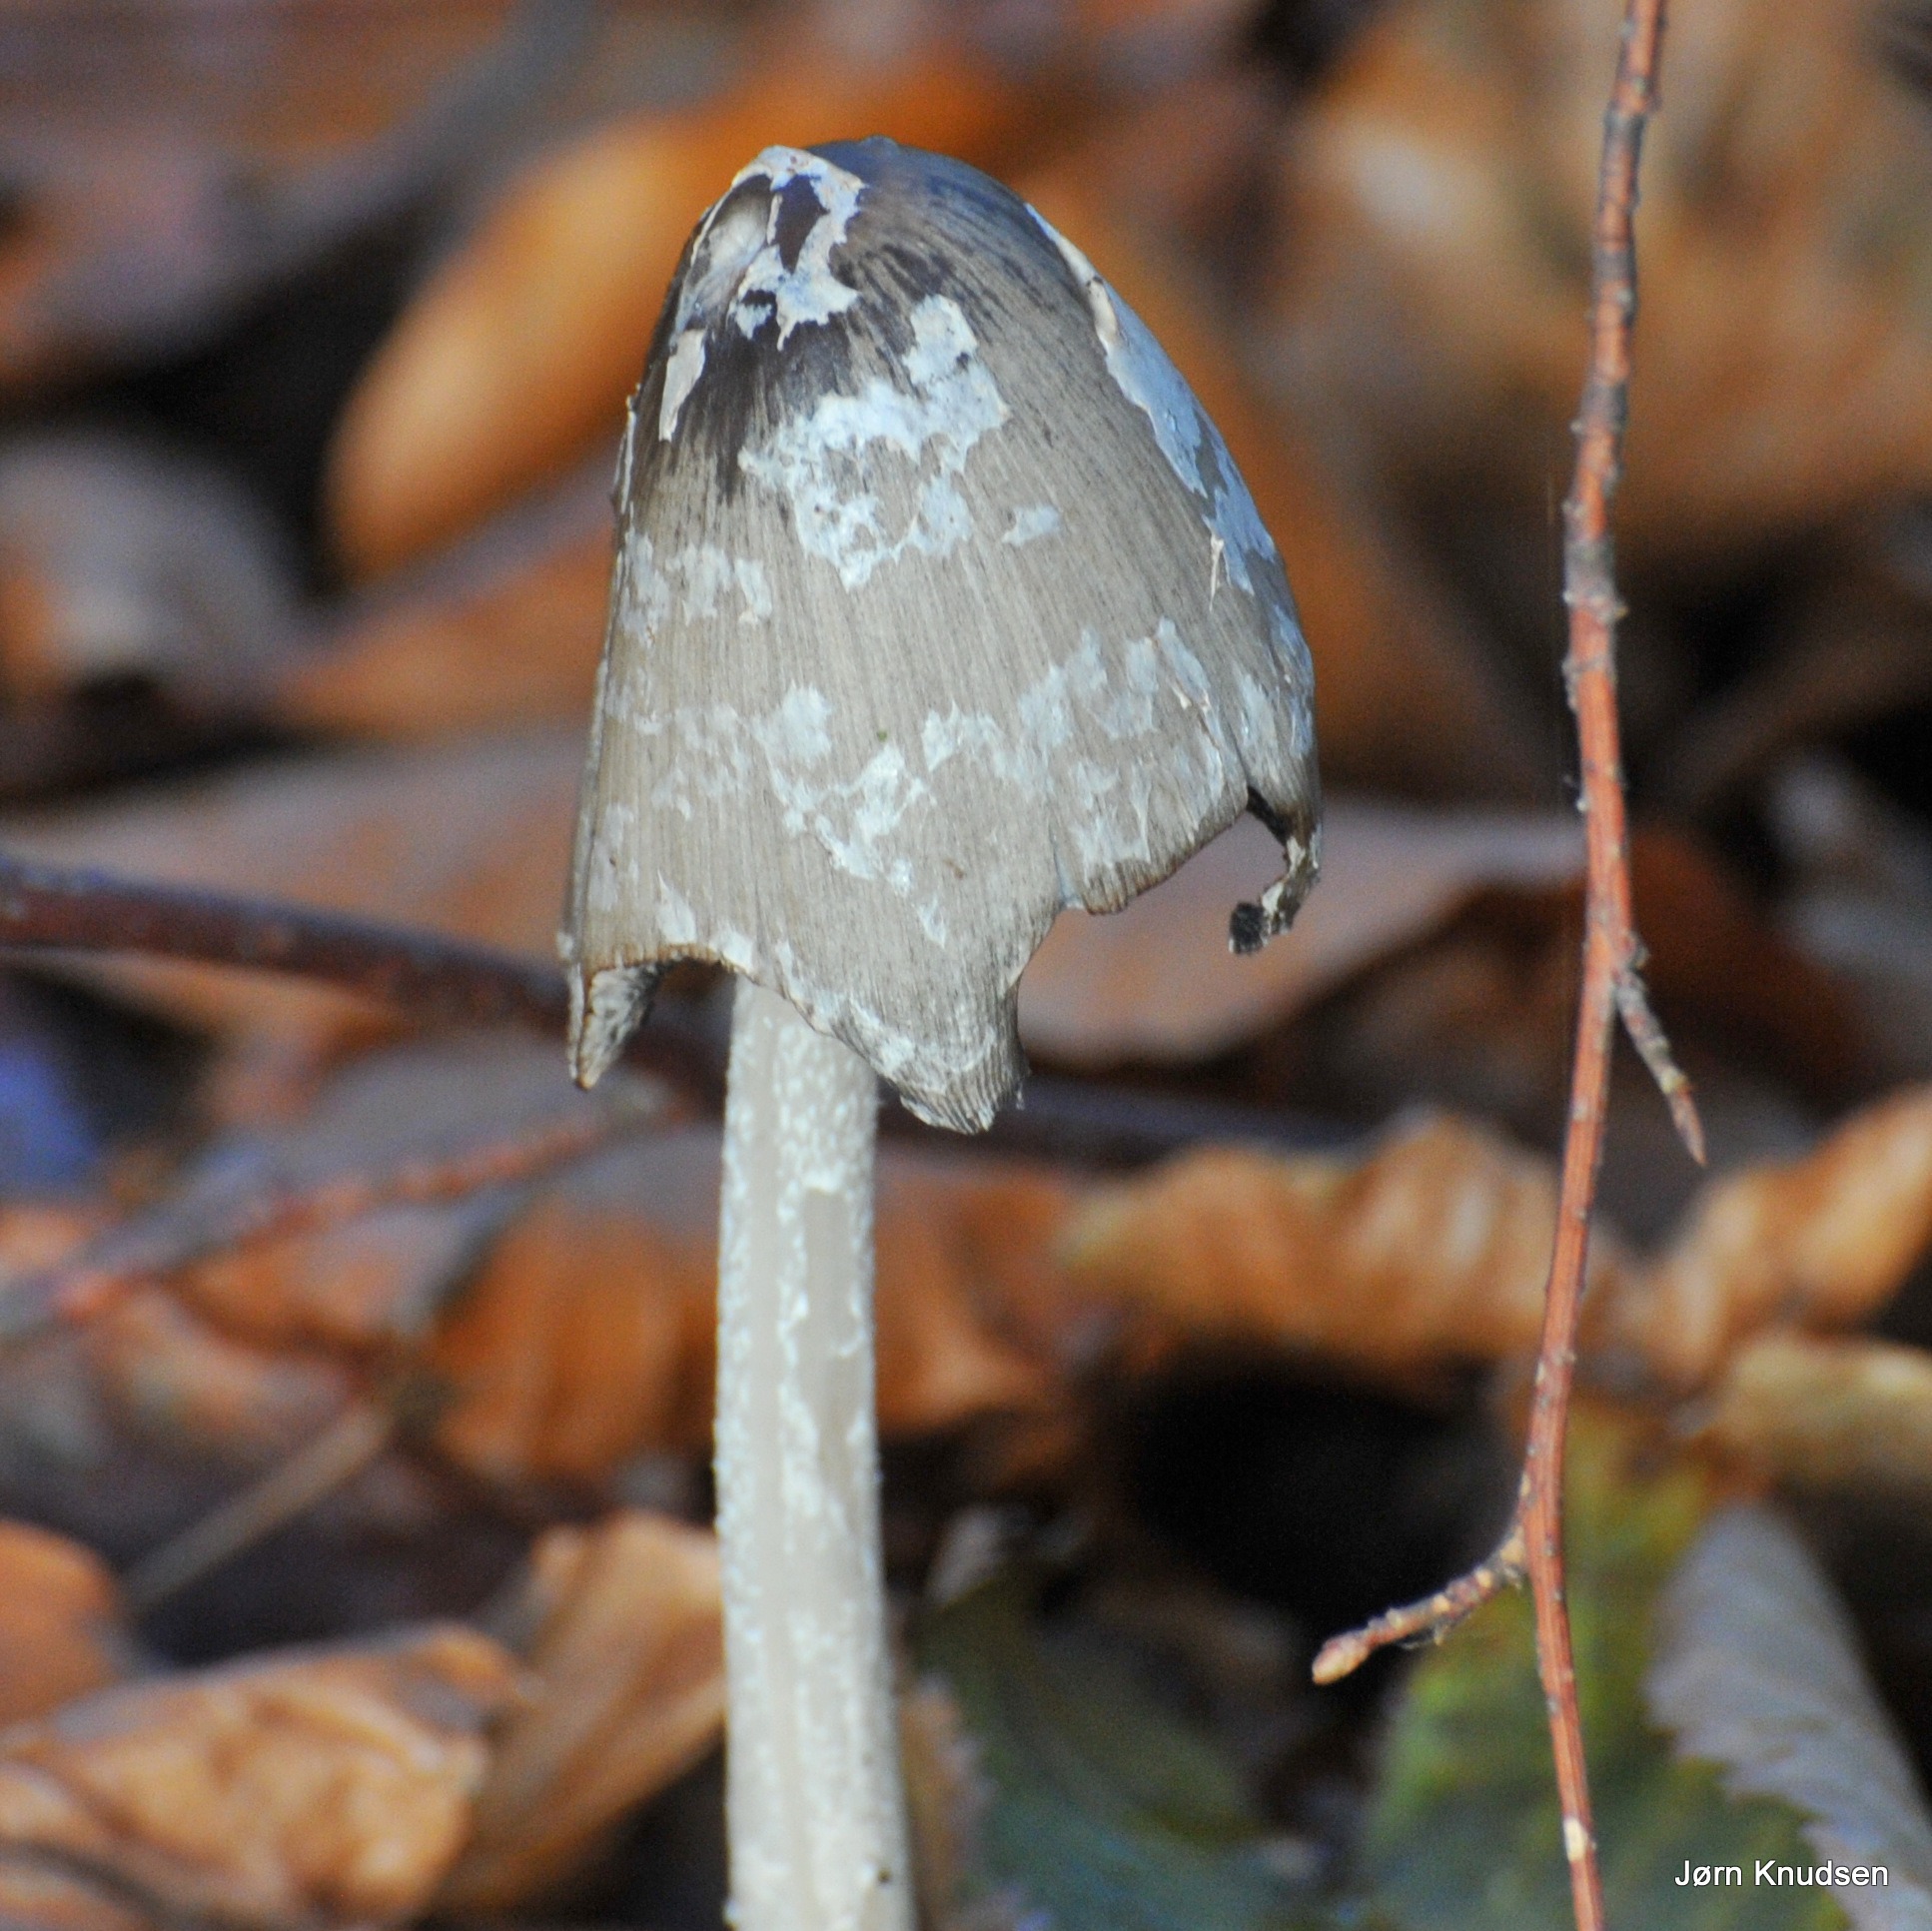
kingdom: Fungi
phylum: Basidiomycota
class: Agaricomycetes
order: Agaricales
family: Psathyrellaceae
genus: Coprinopsis
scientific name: Coprinopsis picacea
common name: Skade-blækhat
